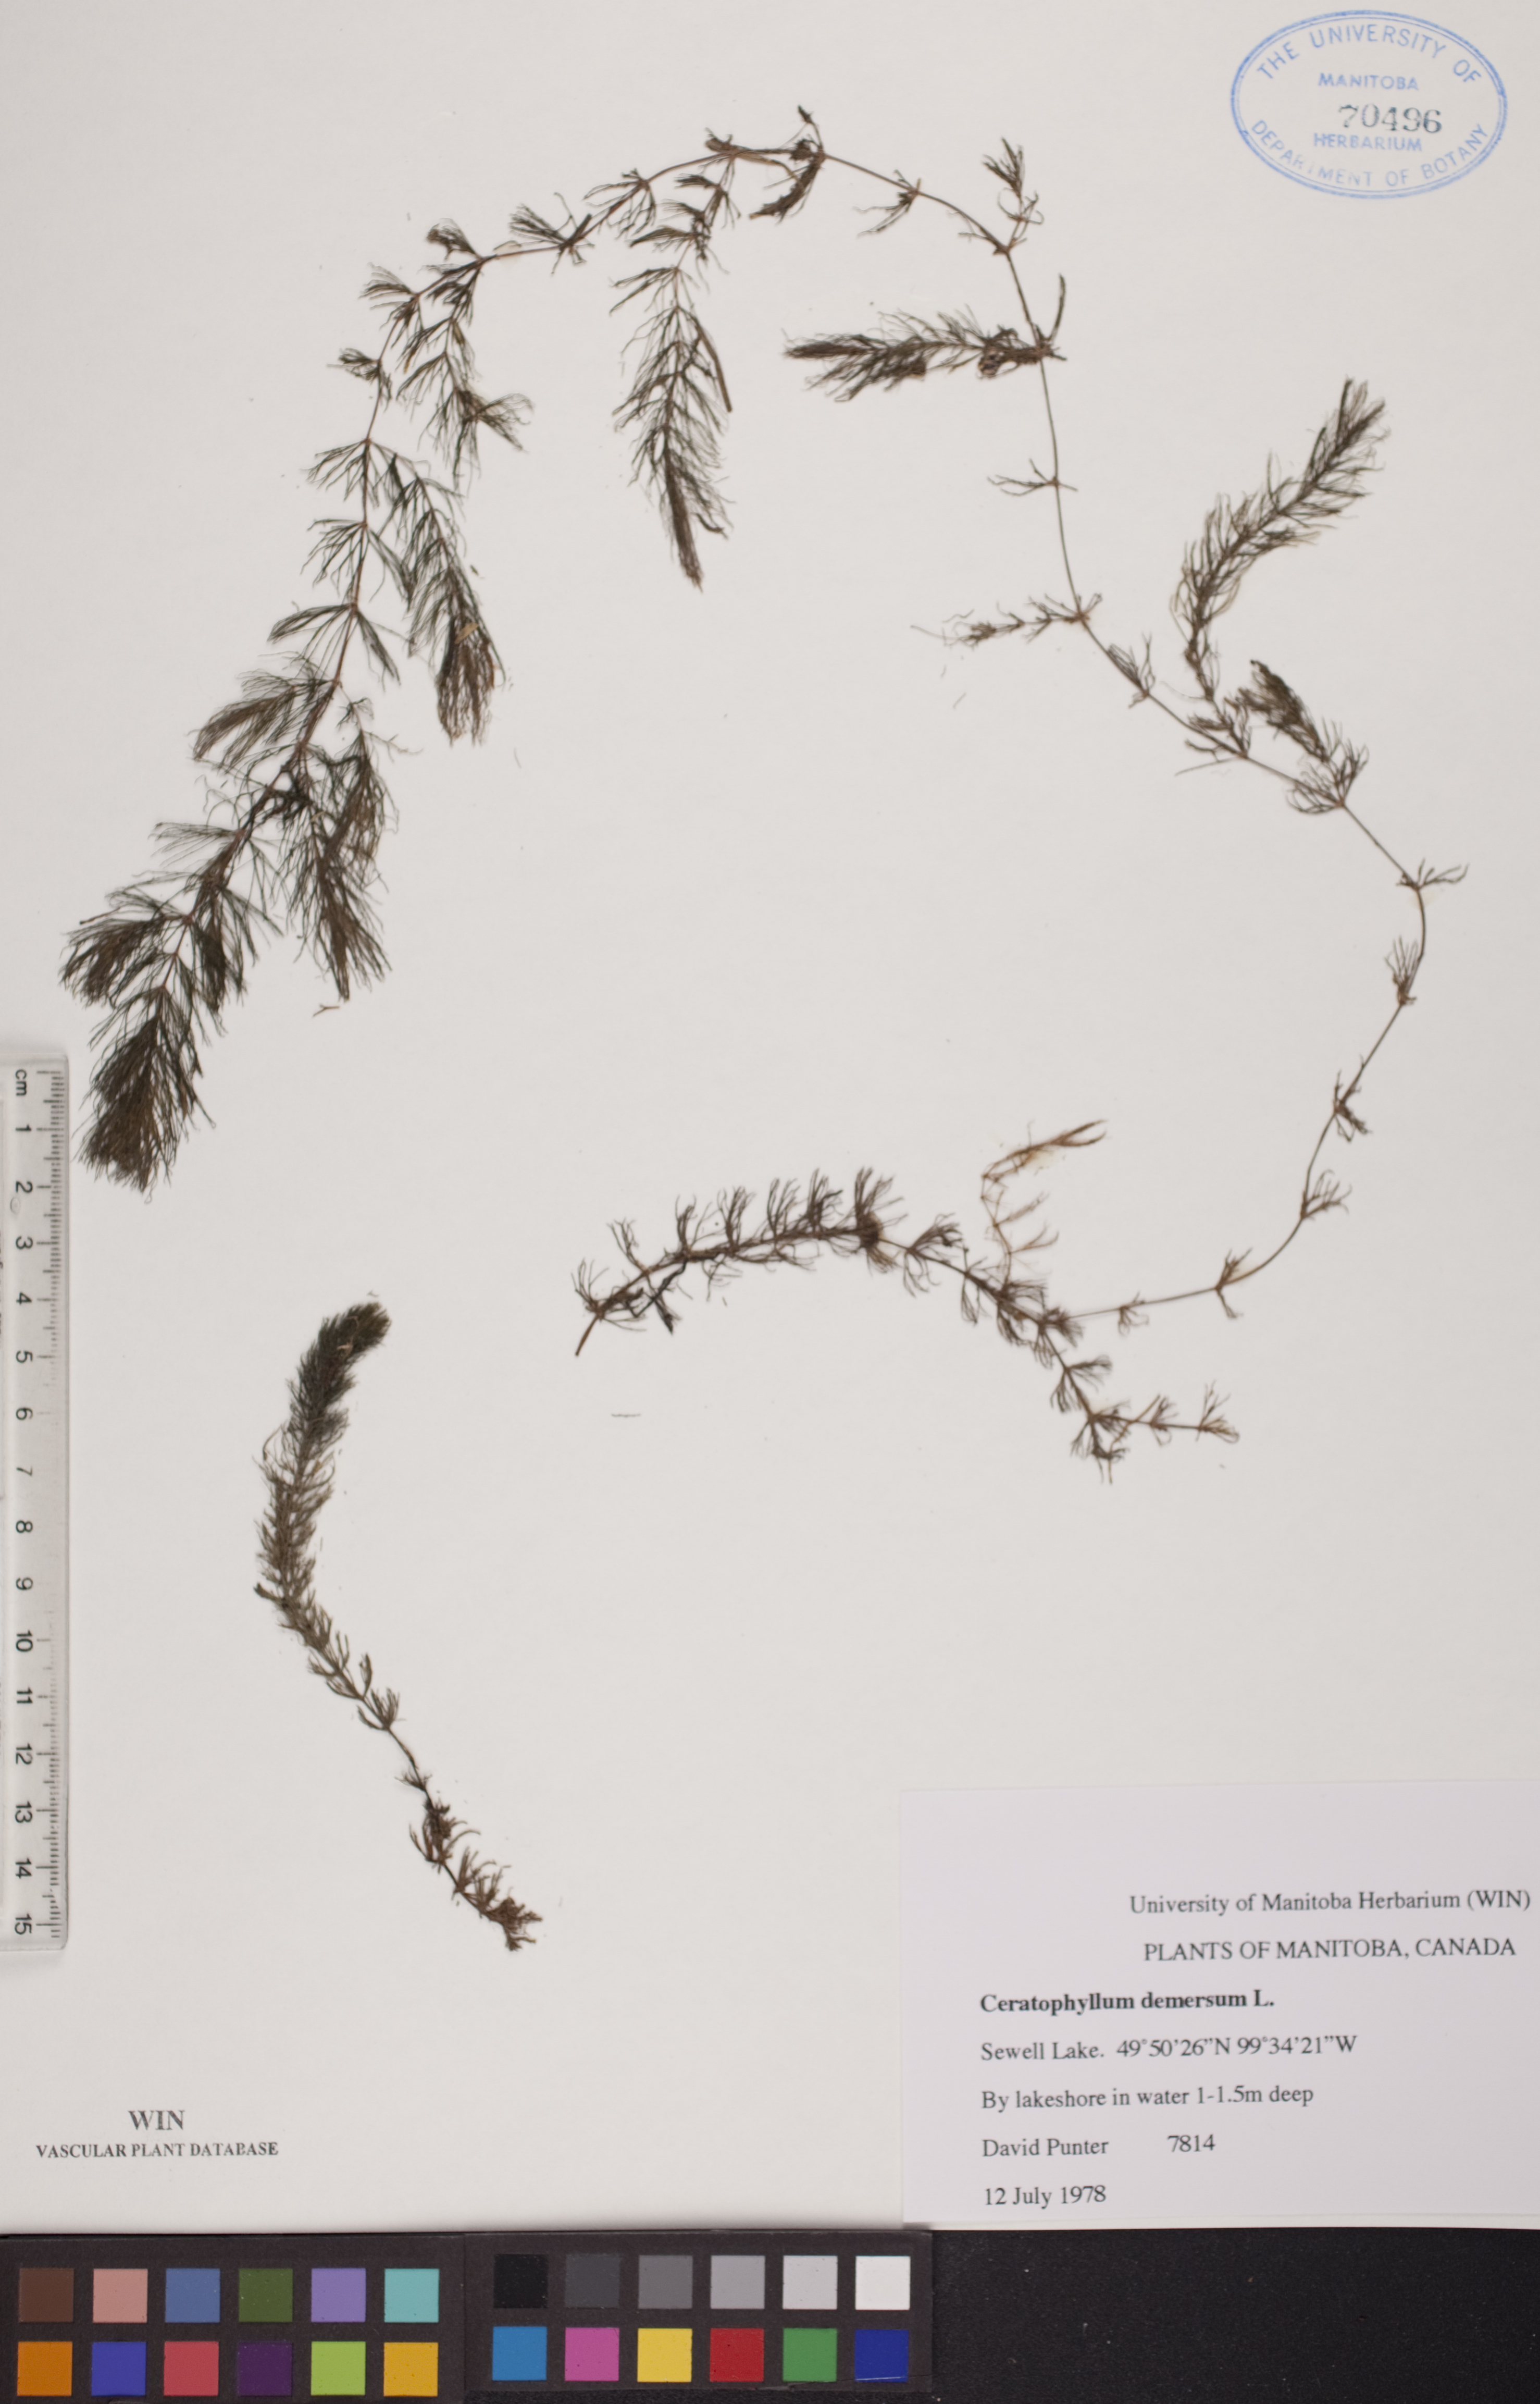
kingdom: Plantae
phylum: Tracheophyta
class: Magnoliopsida
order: Ceratophyllales
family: Ceratophyllaceae
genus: Ceratophyllum
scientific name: Ceratophyllum demersum
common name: Rigid hornwort
